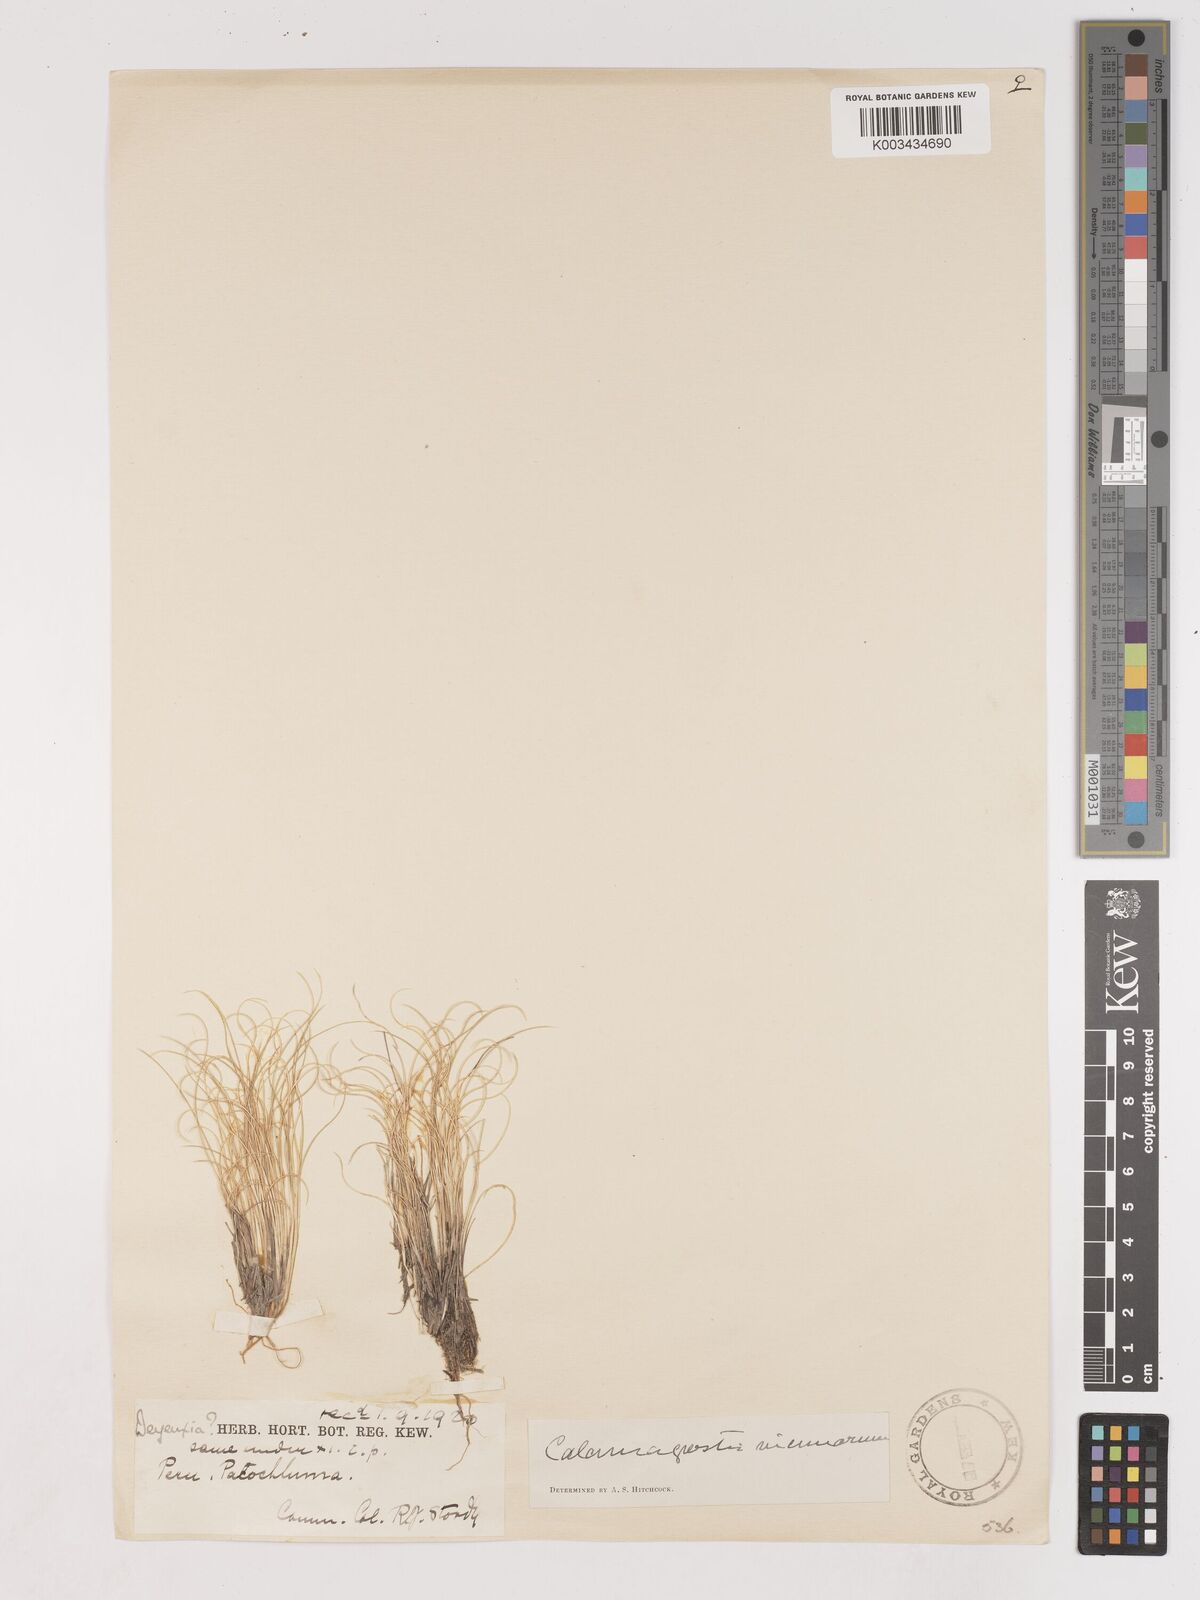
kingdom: Plantae
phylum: Tracheophyta
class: Liliopsida
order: Poales
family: Poaceae
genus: Cinnagrostis
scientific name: Cinnagrostis vicunarum
